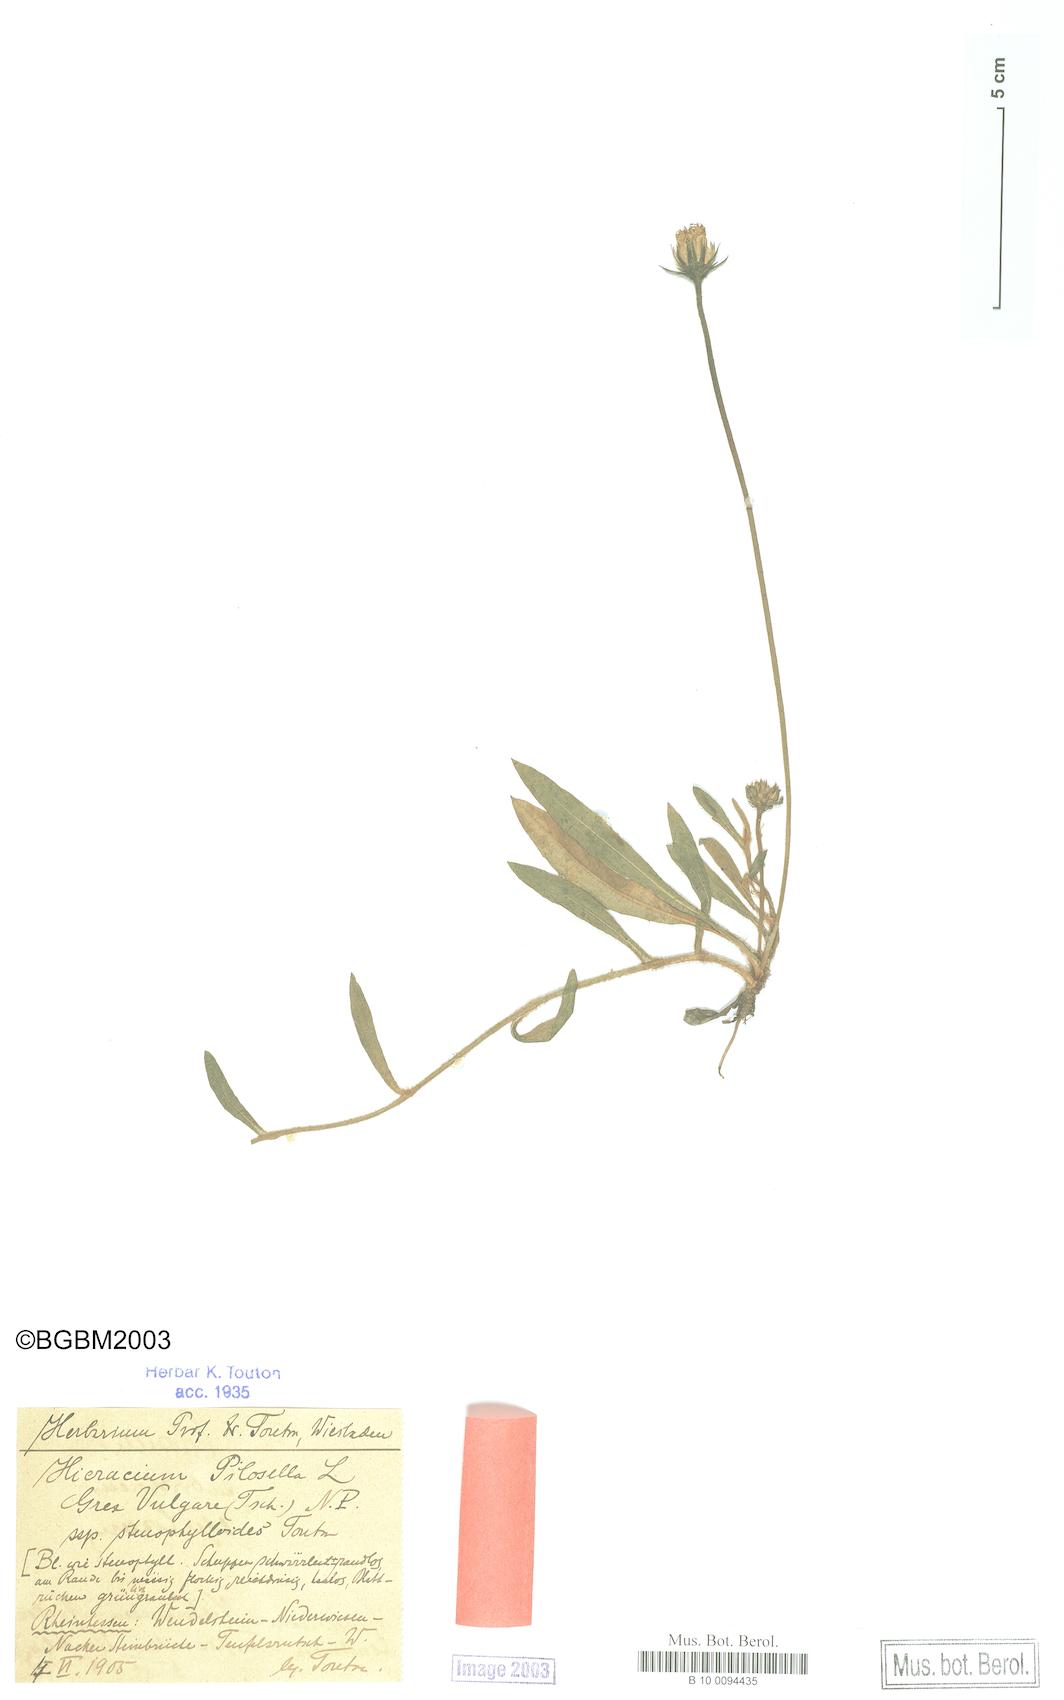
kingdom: Plantae
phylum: Tracheophyta
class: Magnoliopsida
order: Asterales
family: Asteraceae
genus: Pilosella
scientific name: Pilosella officinarum
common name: Mouse-ear hawkweed
